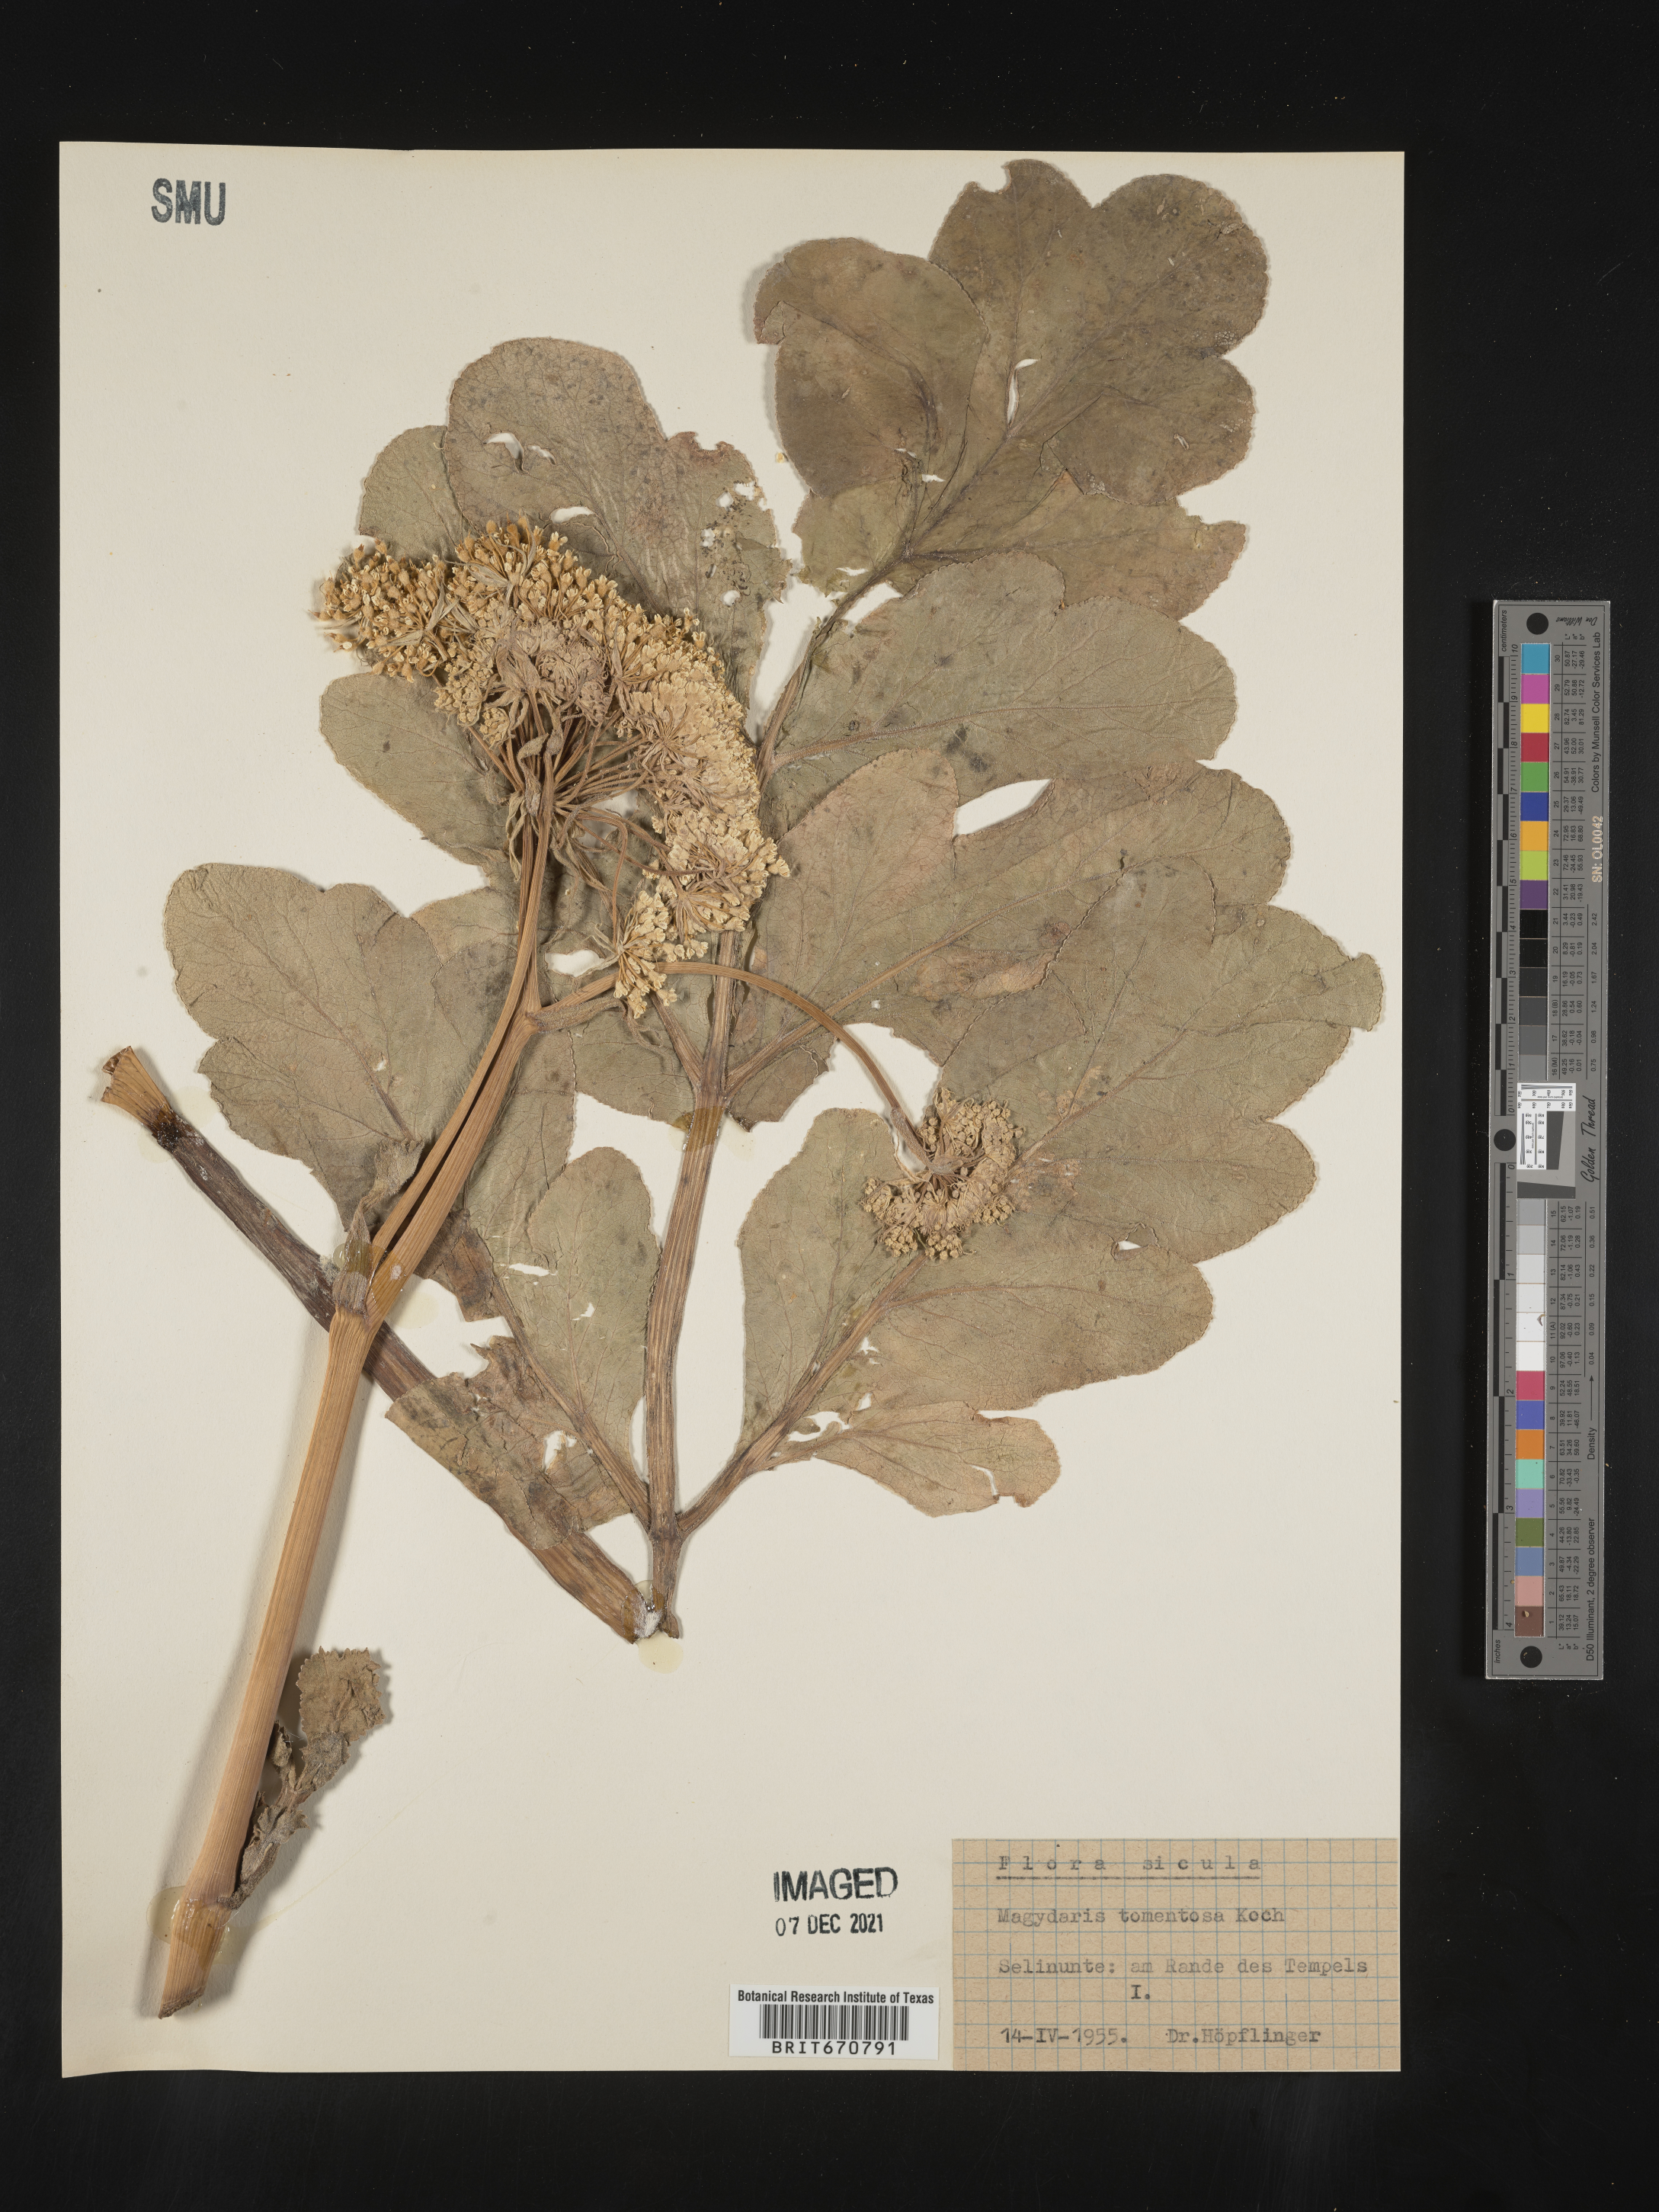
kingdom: Plantae
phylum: Tracheophyta
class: Magnoliopsida
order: Apiales
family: Apiaceae
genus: Magydaris
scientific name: Magydaris pastinacea
